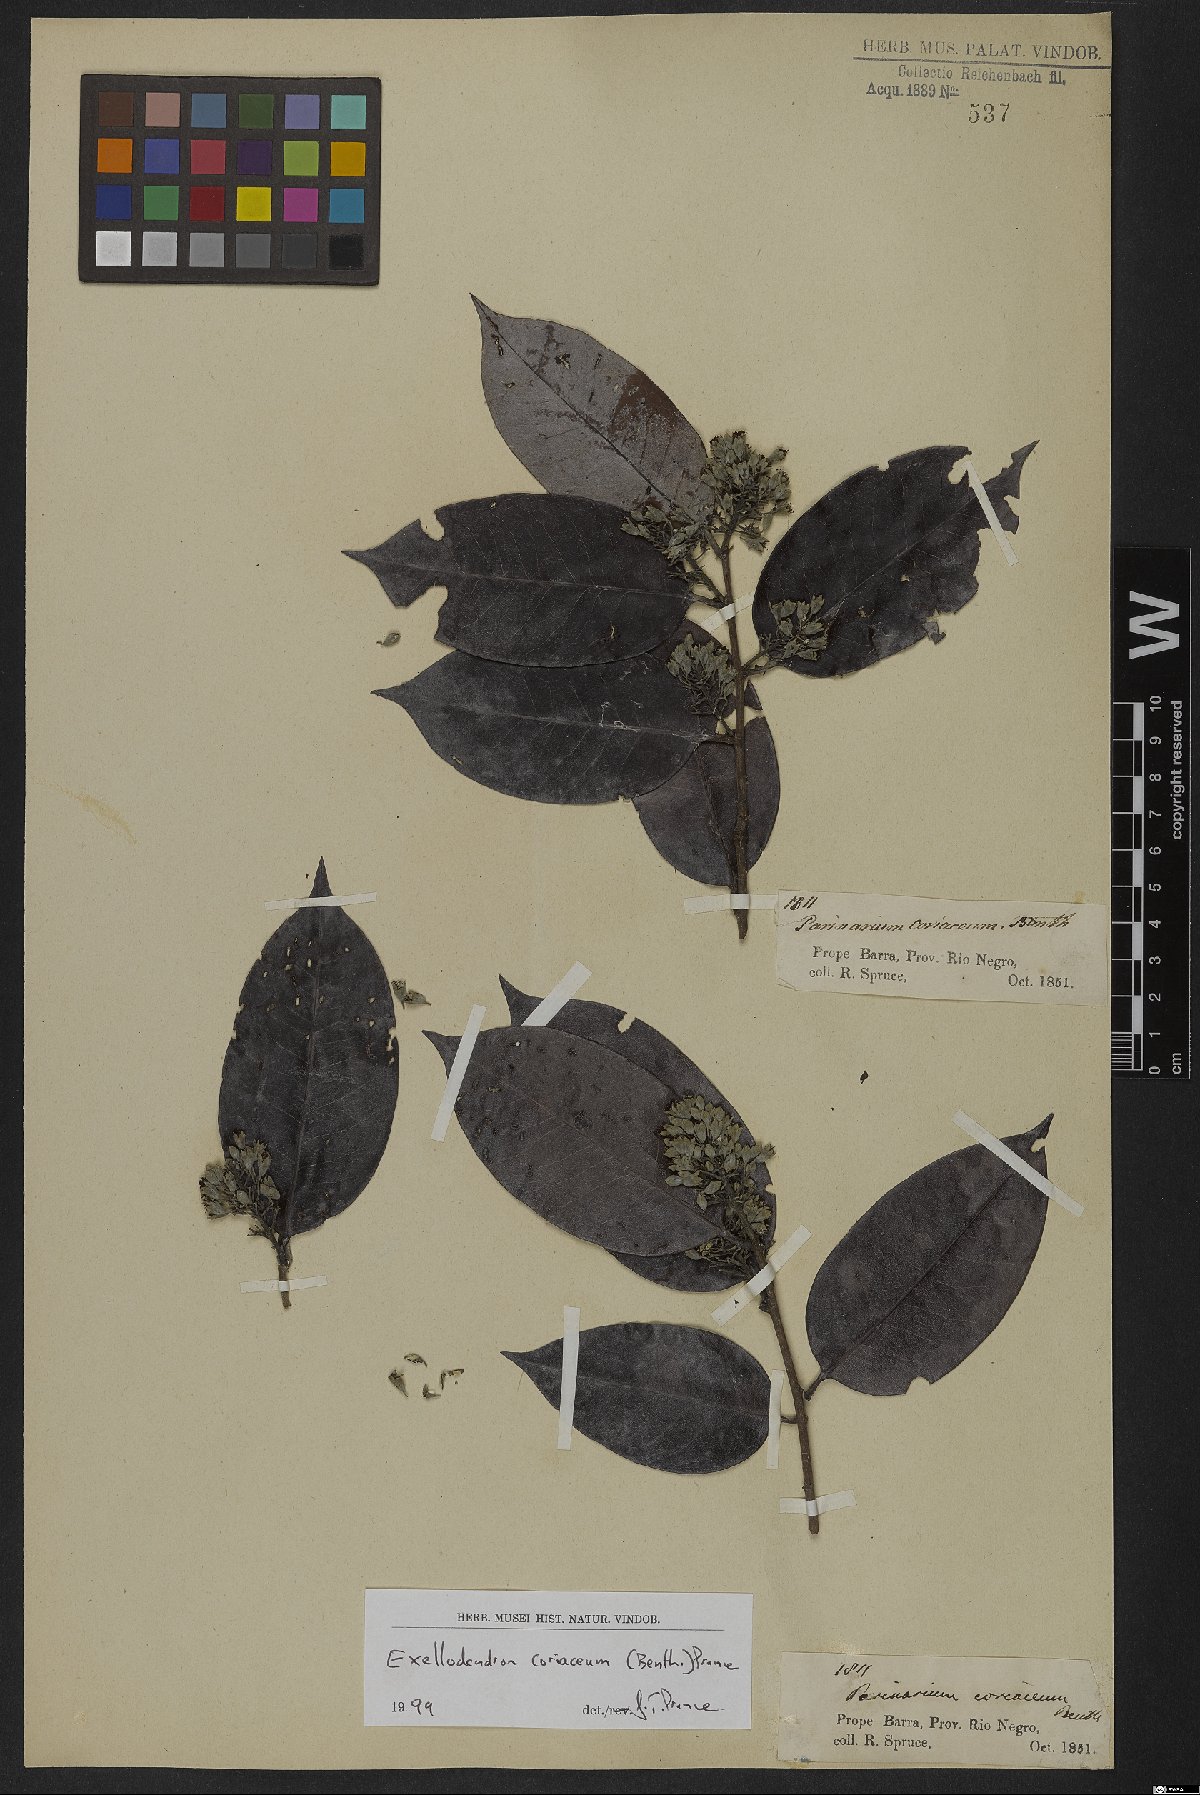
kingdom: Plantae
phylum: Tracheophyta
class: Magnoliopsida
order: Malpighiales
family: Chrysobalanaceae
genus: Exellodendron
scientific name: Exellodendron coriaceum
